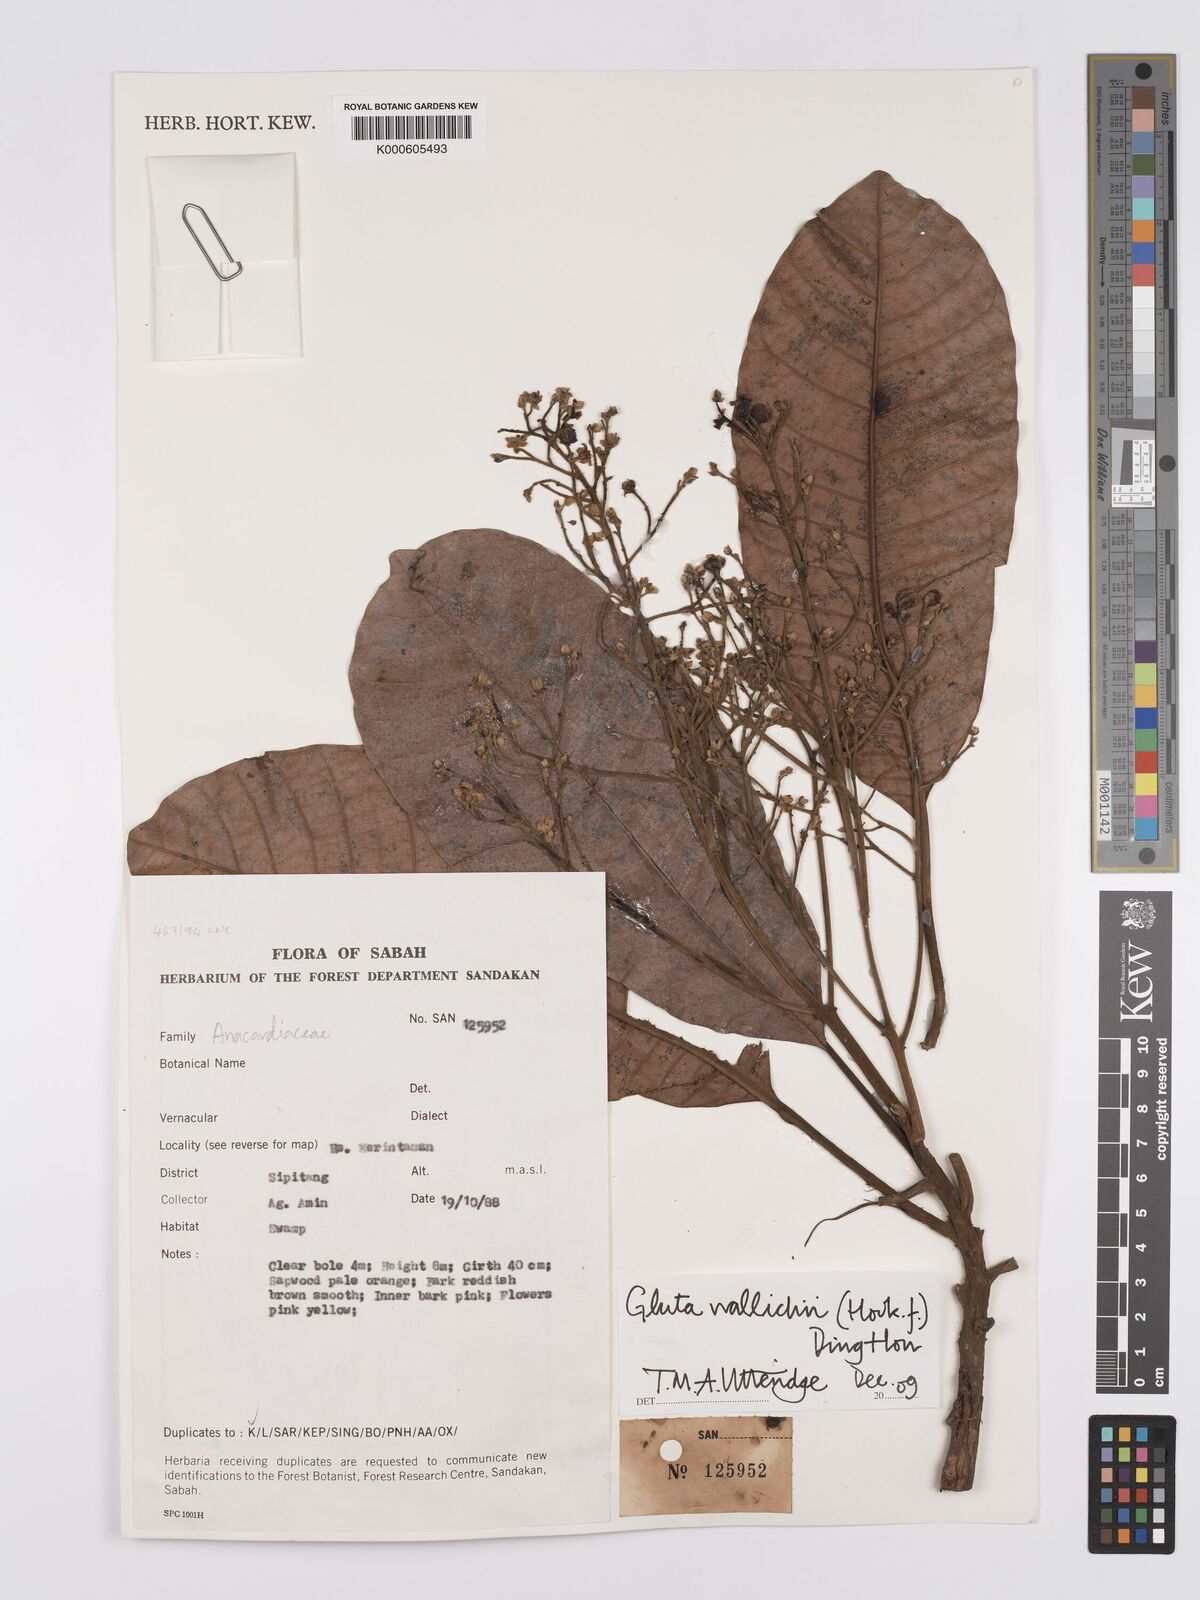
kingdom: Plantae
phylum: Tracheophyta
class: Magnoliopsida
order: Sapindales
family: Anacardiaceae
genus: Gluta
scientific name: Gluta wallichii
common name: Common rengas
